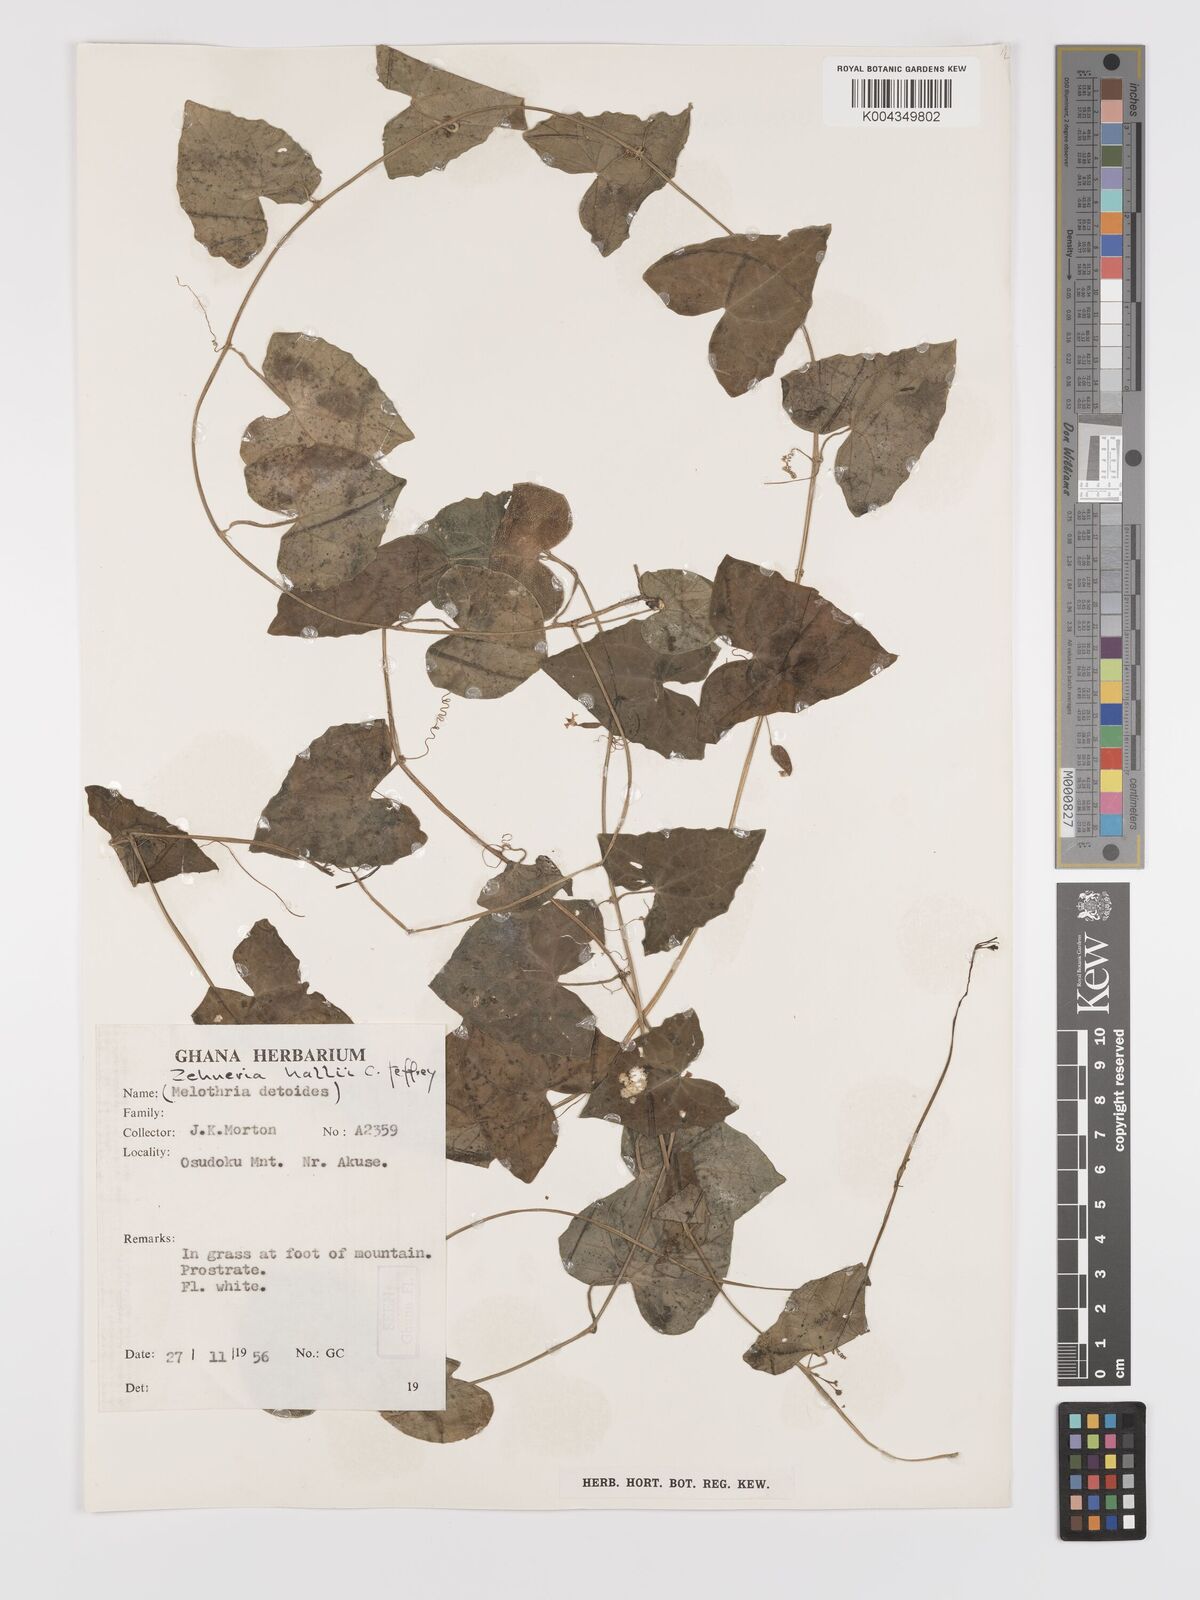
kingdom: Plantae
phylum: Tracheophyta
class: Magnoliopsida
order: Cucurbitales
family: Cucurbitaceae
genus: Zehneria
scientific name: Zehneria hallii
